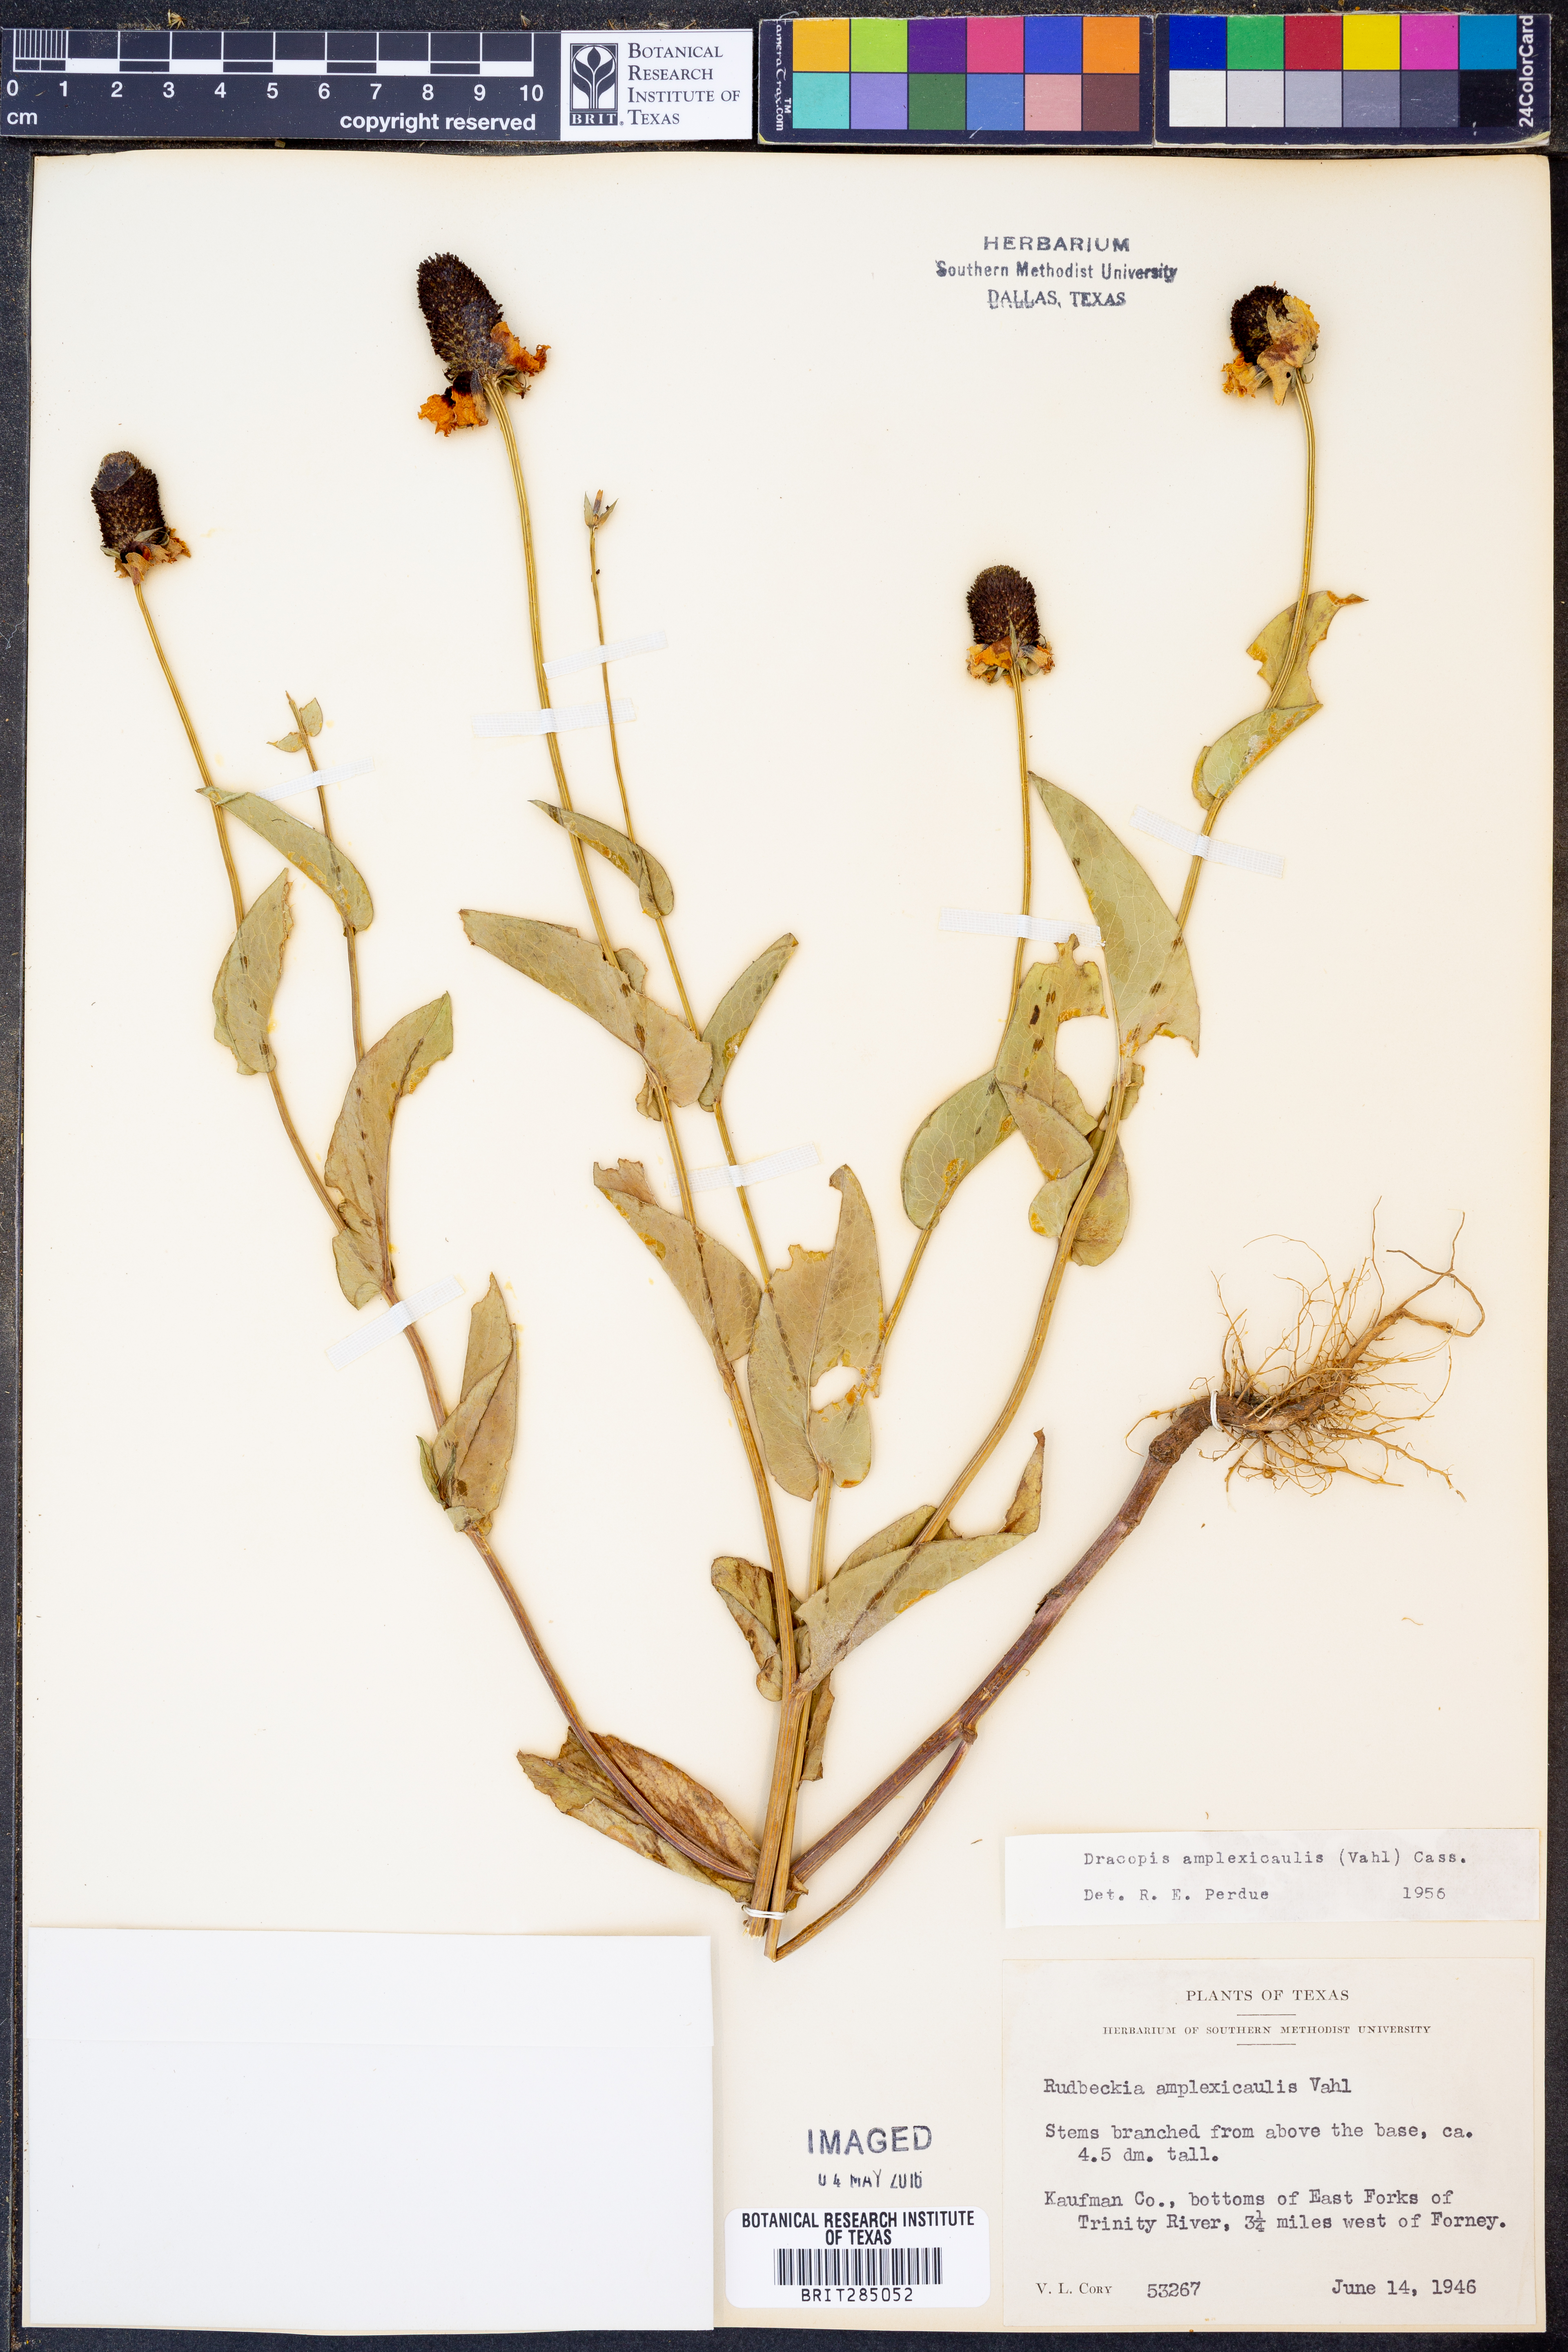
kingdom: Plantae
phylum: Tracheophyta
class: Magnoliopsida
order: Asterales
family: Asteraceae
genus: Rudbeckia
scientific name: Rudbeckia amplexicaulis
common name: Clasping-leaf coneflower
